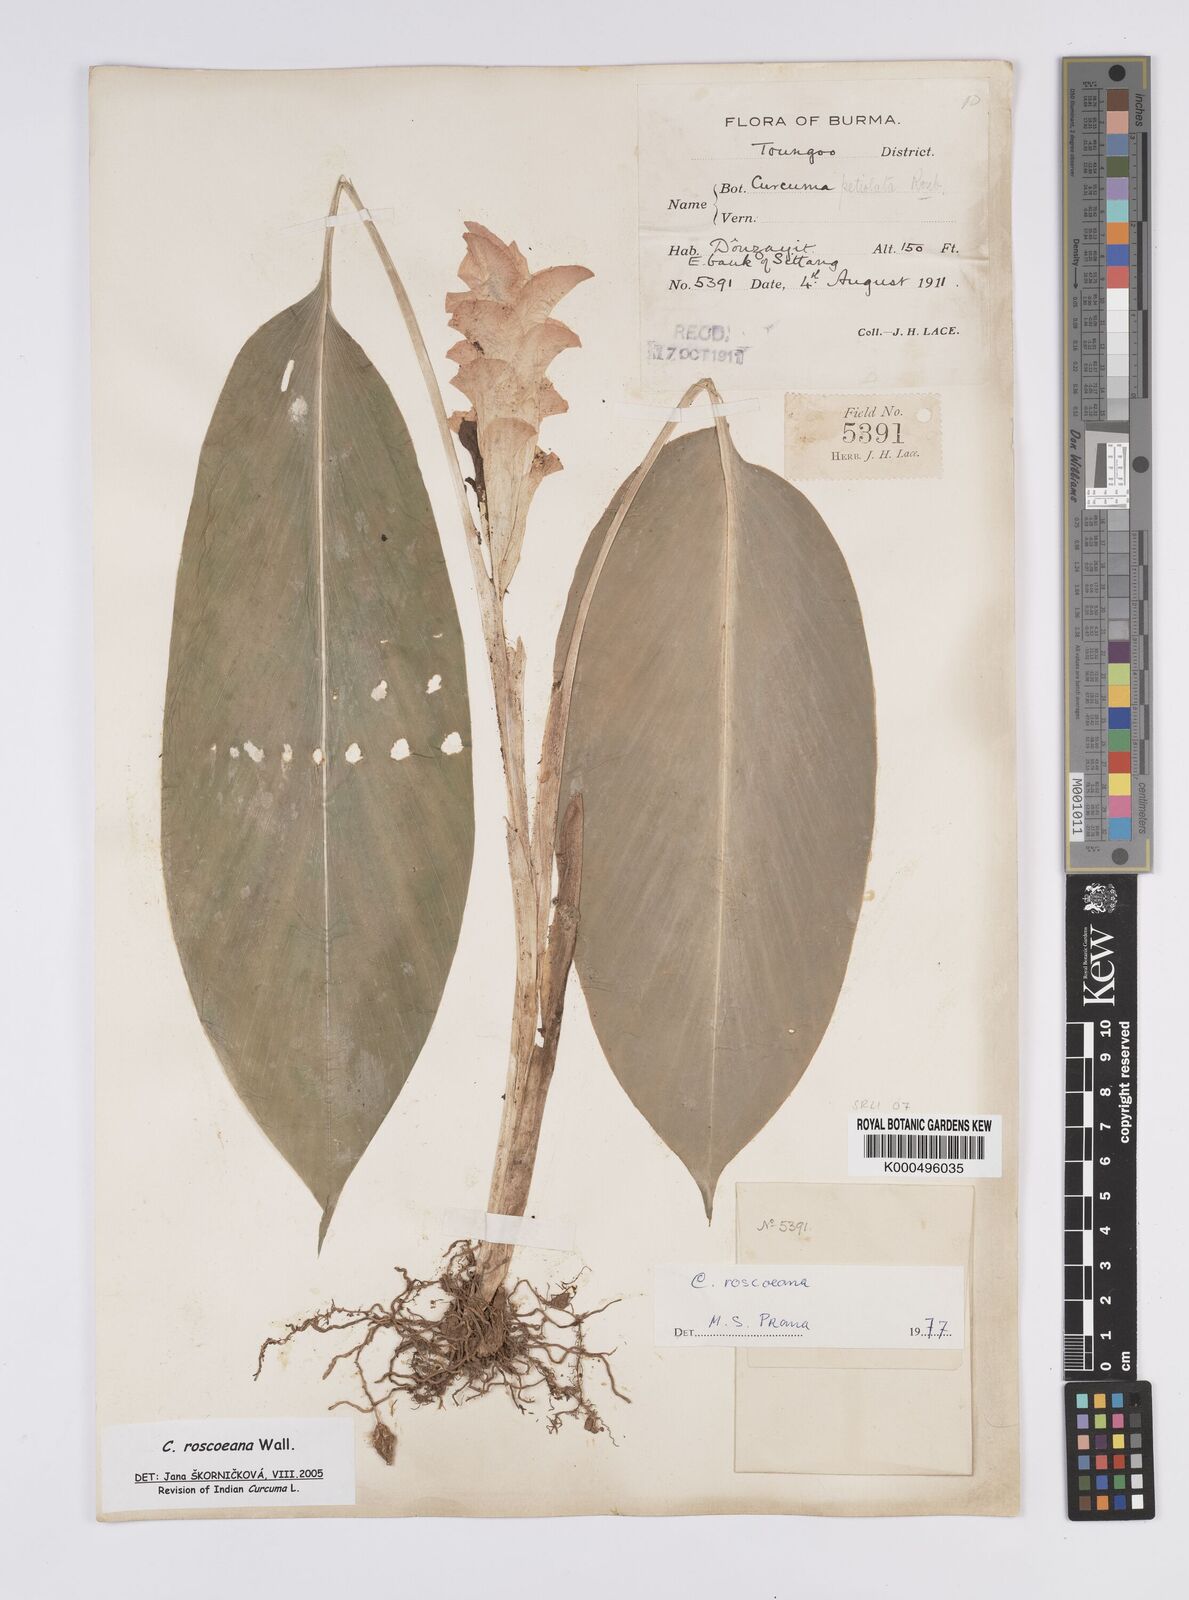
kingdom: Plantae
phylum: Tracheophyta
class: Liliopsida
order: Zingiberales
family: Zingiberaceae
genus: Curcuma
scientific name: Curcuma roscoeana
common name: Jewel of burma
